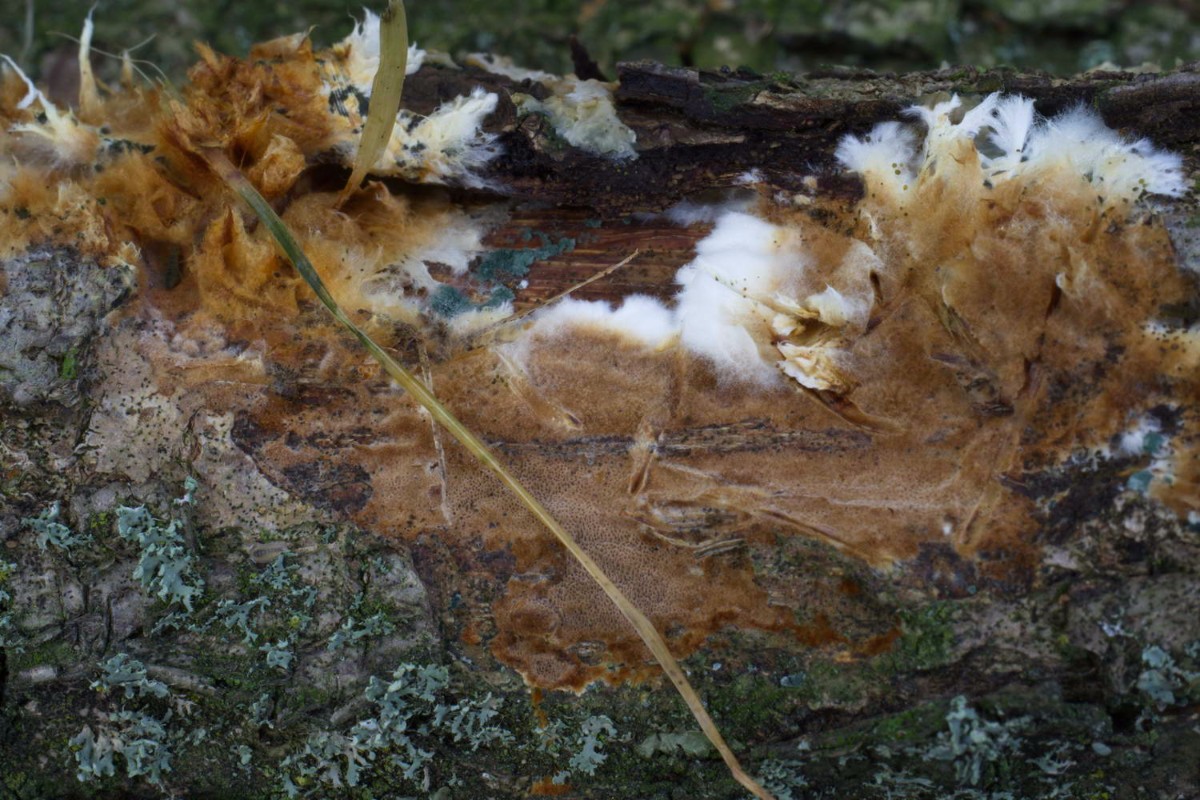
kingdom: Fungi
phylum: Basidiomycota
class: Agaricomycetes
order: Hymenochaetales
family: Hymenochaetaceae
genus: Fuscoporia
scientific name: Fuscoporia ferruginosa
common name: rustbrun ildporesvamp
